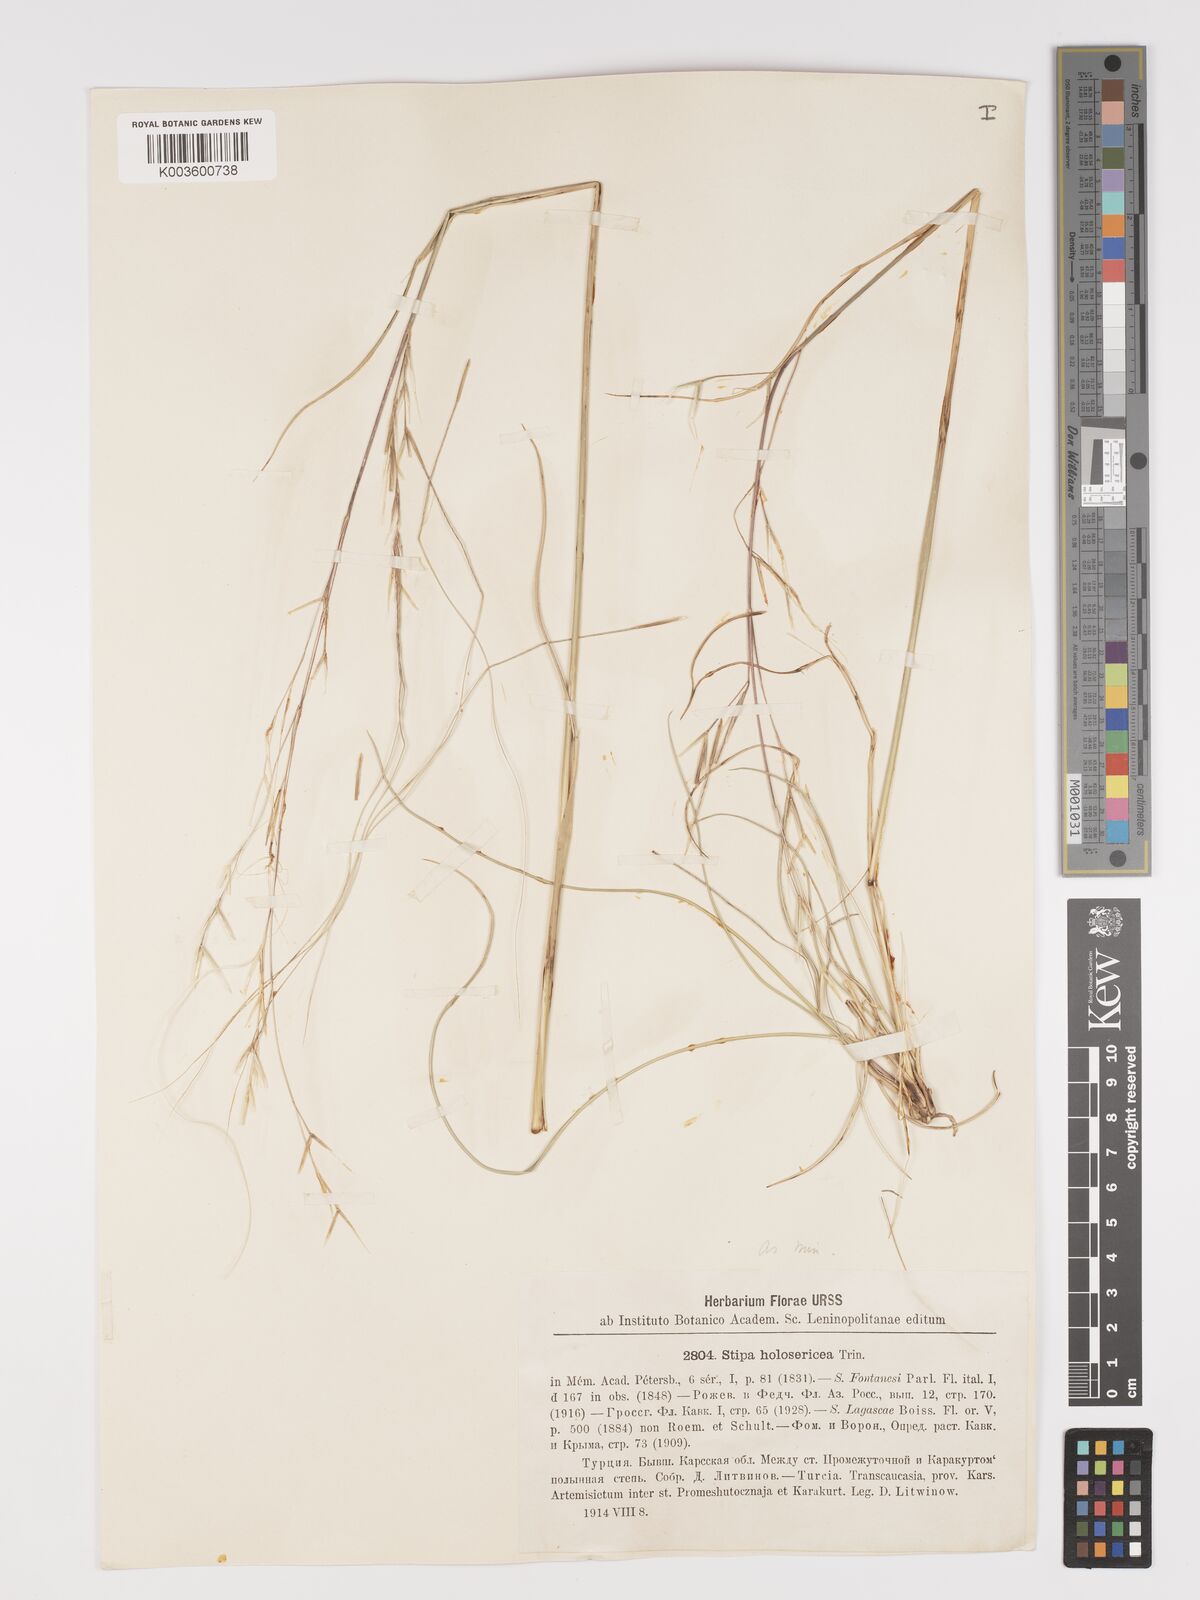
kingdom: Plantae
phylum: Tracheophyta
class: Liliopsida
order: Poales
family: Poaceae
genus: Stipa
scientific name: Stipa lagascae
